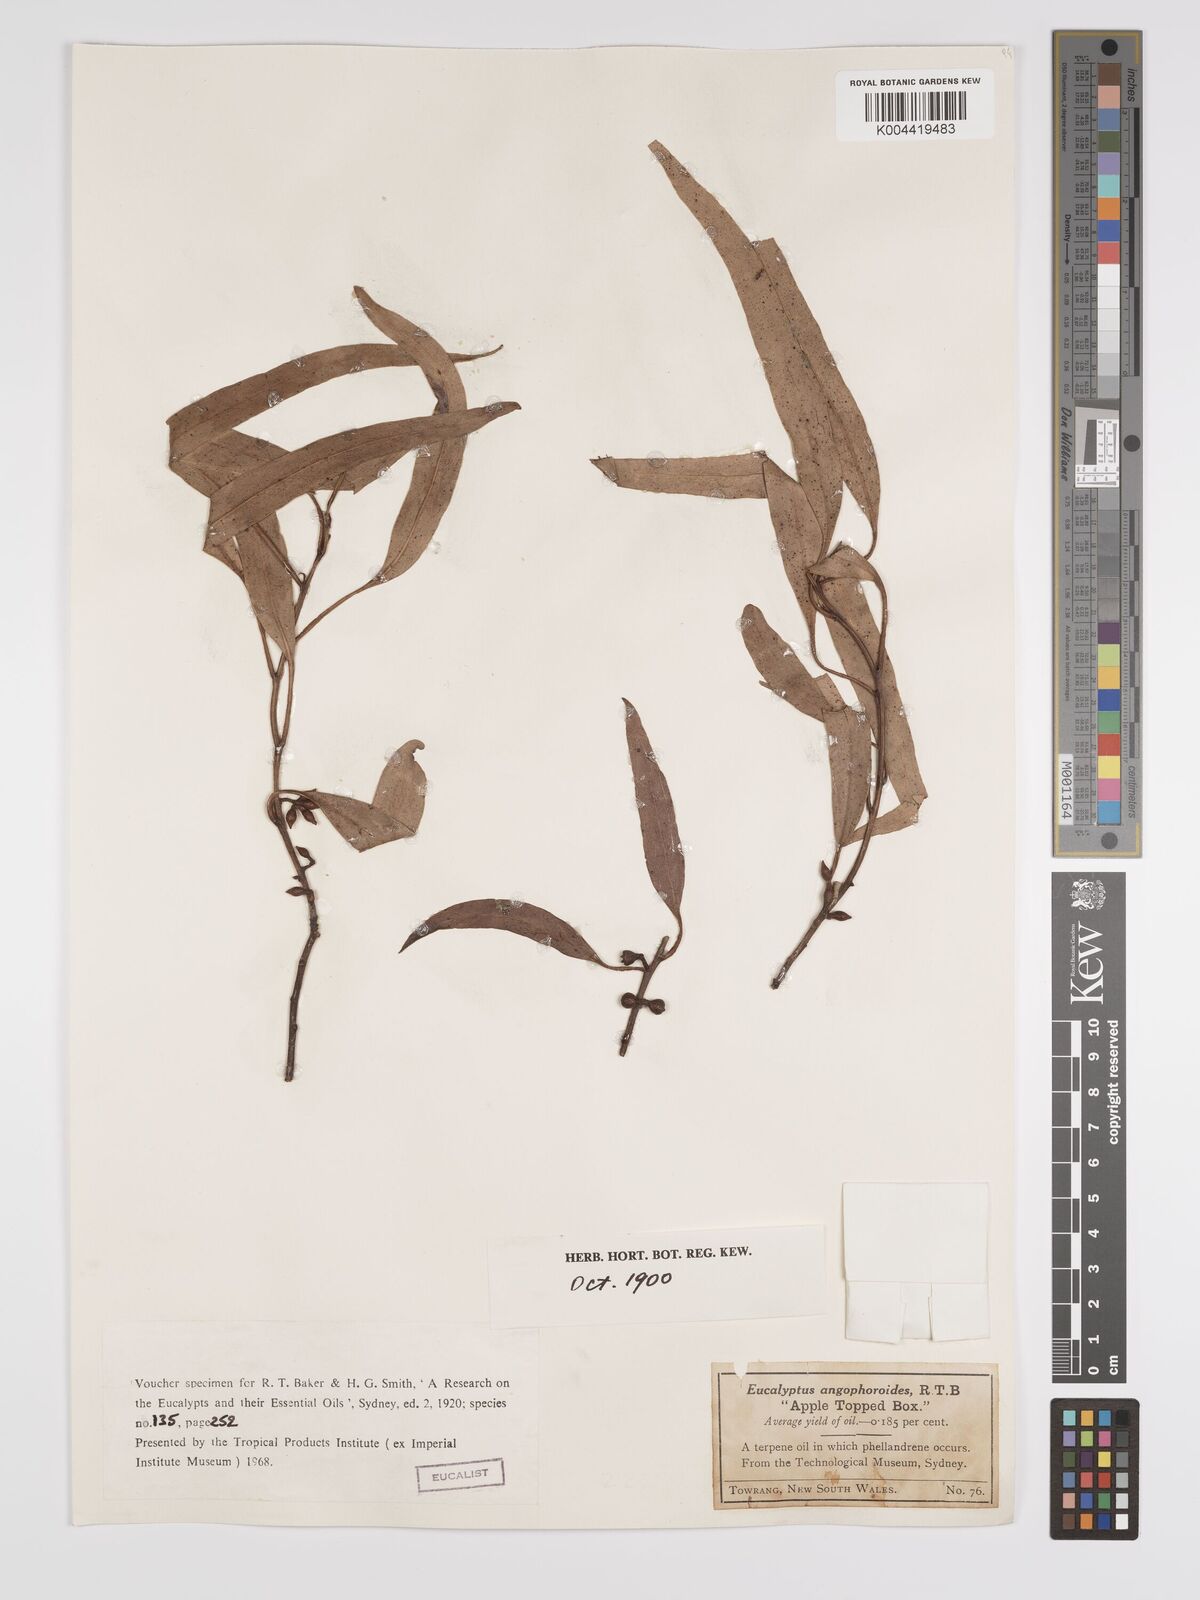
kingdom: Plantae
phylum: Tracheophyta
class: Magnoliopsida
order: Myrtales
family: Myrtaceae
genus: Eucalyptus
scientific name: Eucalyptus angophoroides
